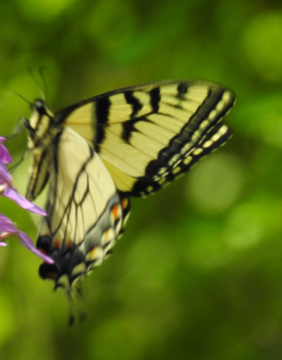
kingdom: Animalia
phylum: Arthropoda
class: Insecta
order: Lepidoptera
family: Papilionidae
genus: Pterourus
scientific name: Pterourus canadensis
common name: Canadian Tiger Swallowtail
